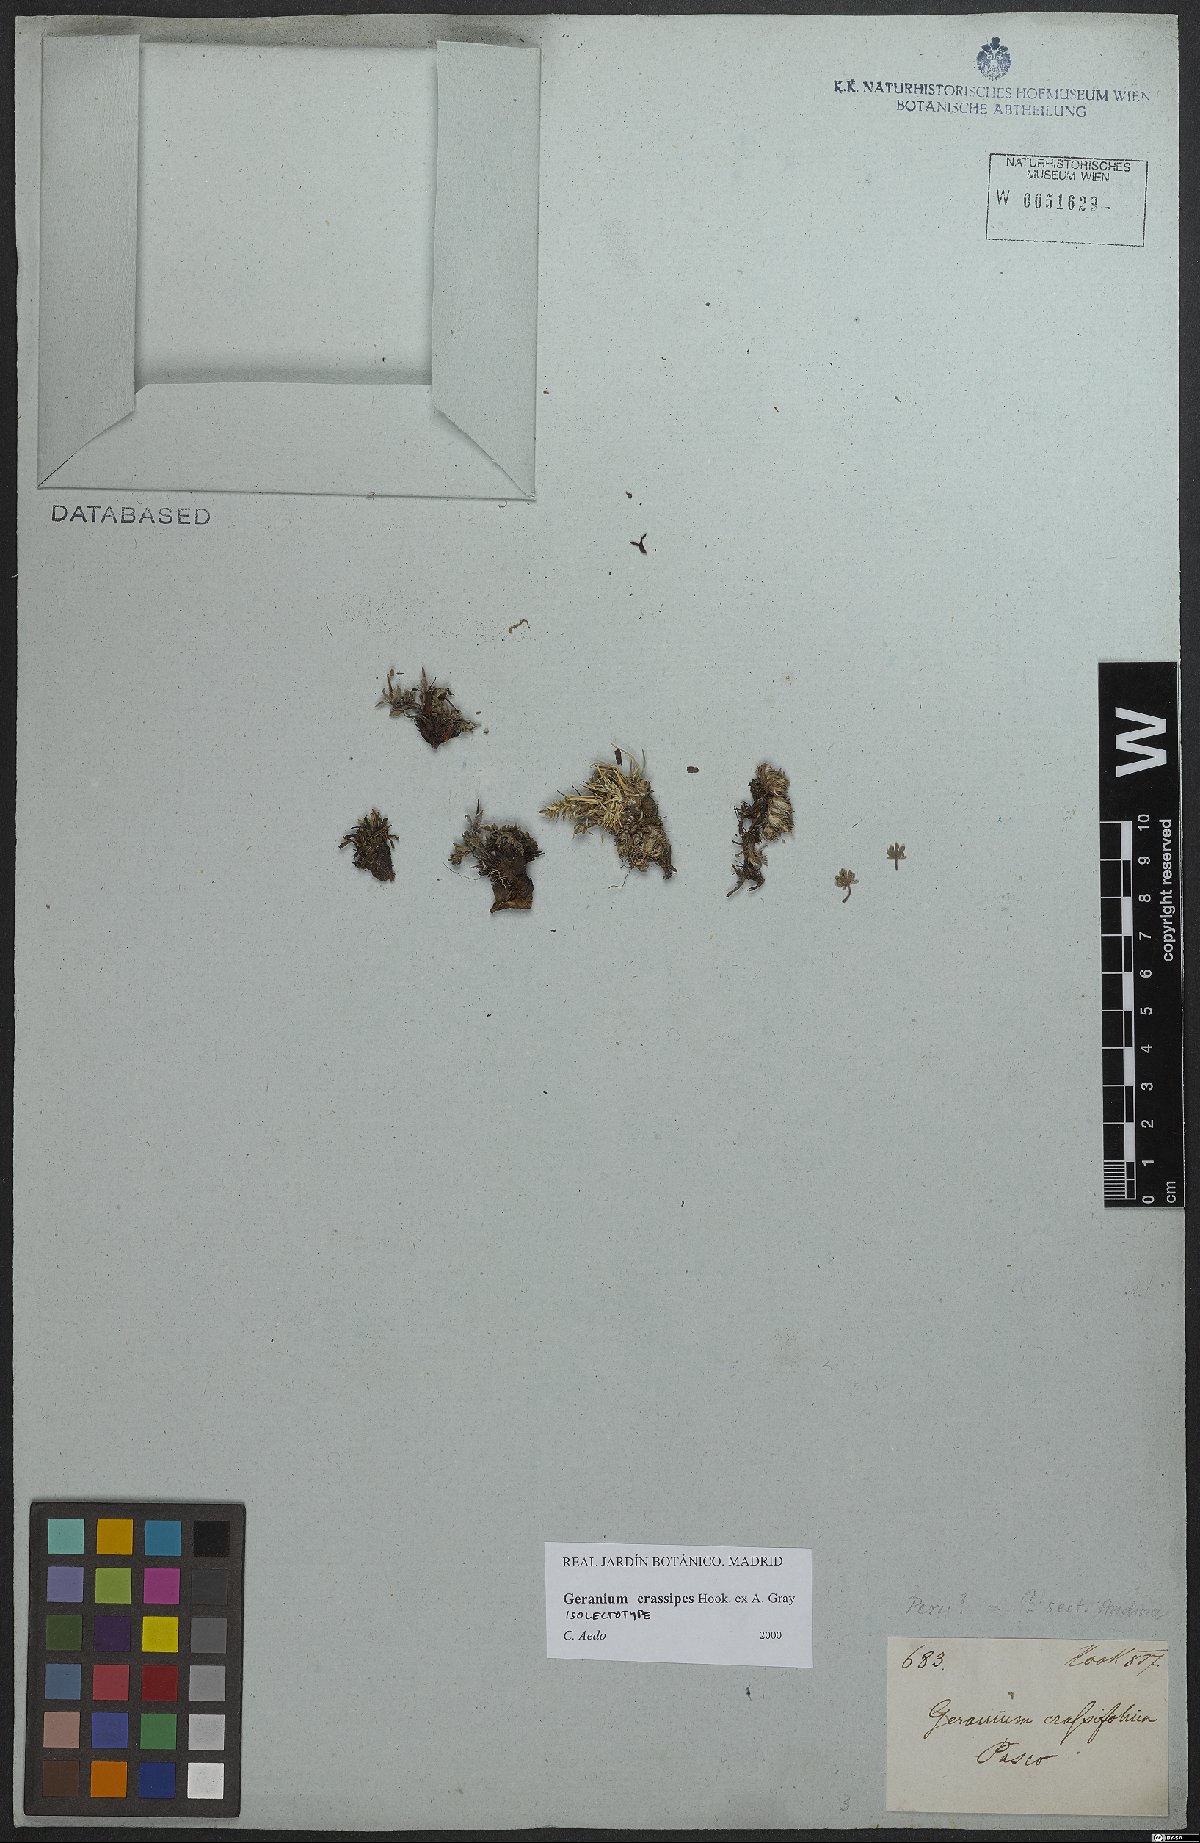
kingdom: Plantae
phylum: Tracheophyta
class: Magnoliopsida
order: Geraniales
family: Geraniaceae
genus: Geranium
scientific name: Geranium crassipes
